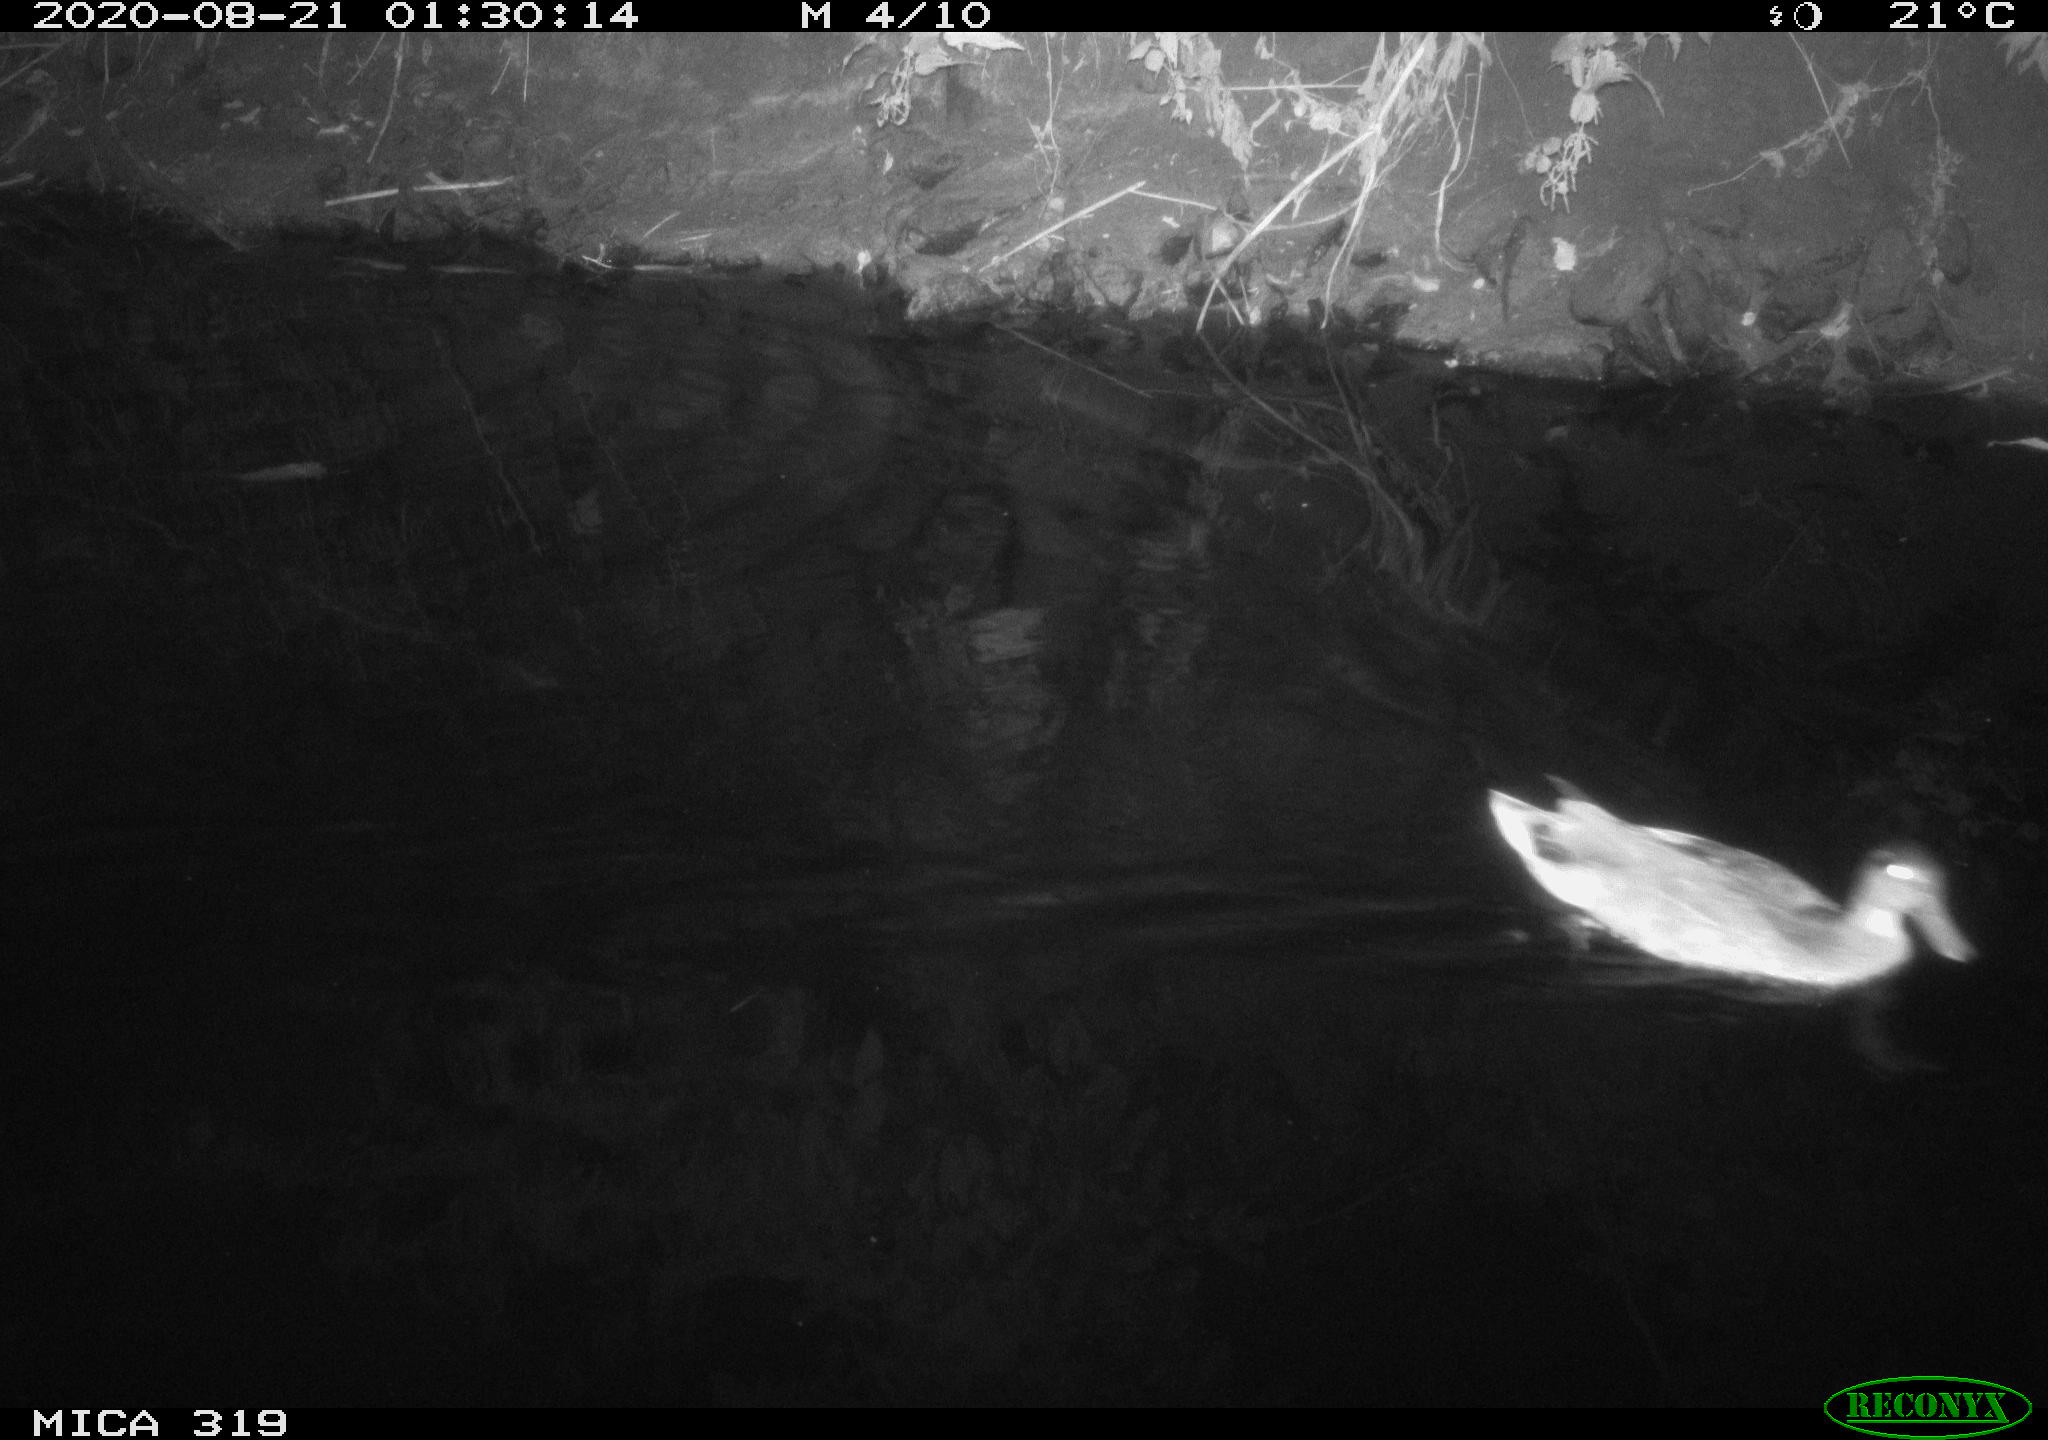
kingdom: Animalia
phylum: Chordata
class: Aves
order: Anseriformes
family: Anatidae
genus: Anas
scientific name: Anas platyrhynchos
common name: Mallard
